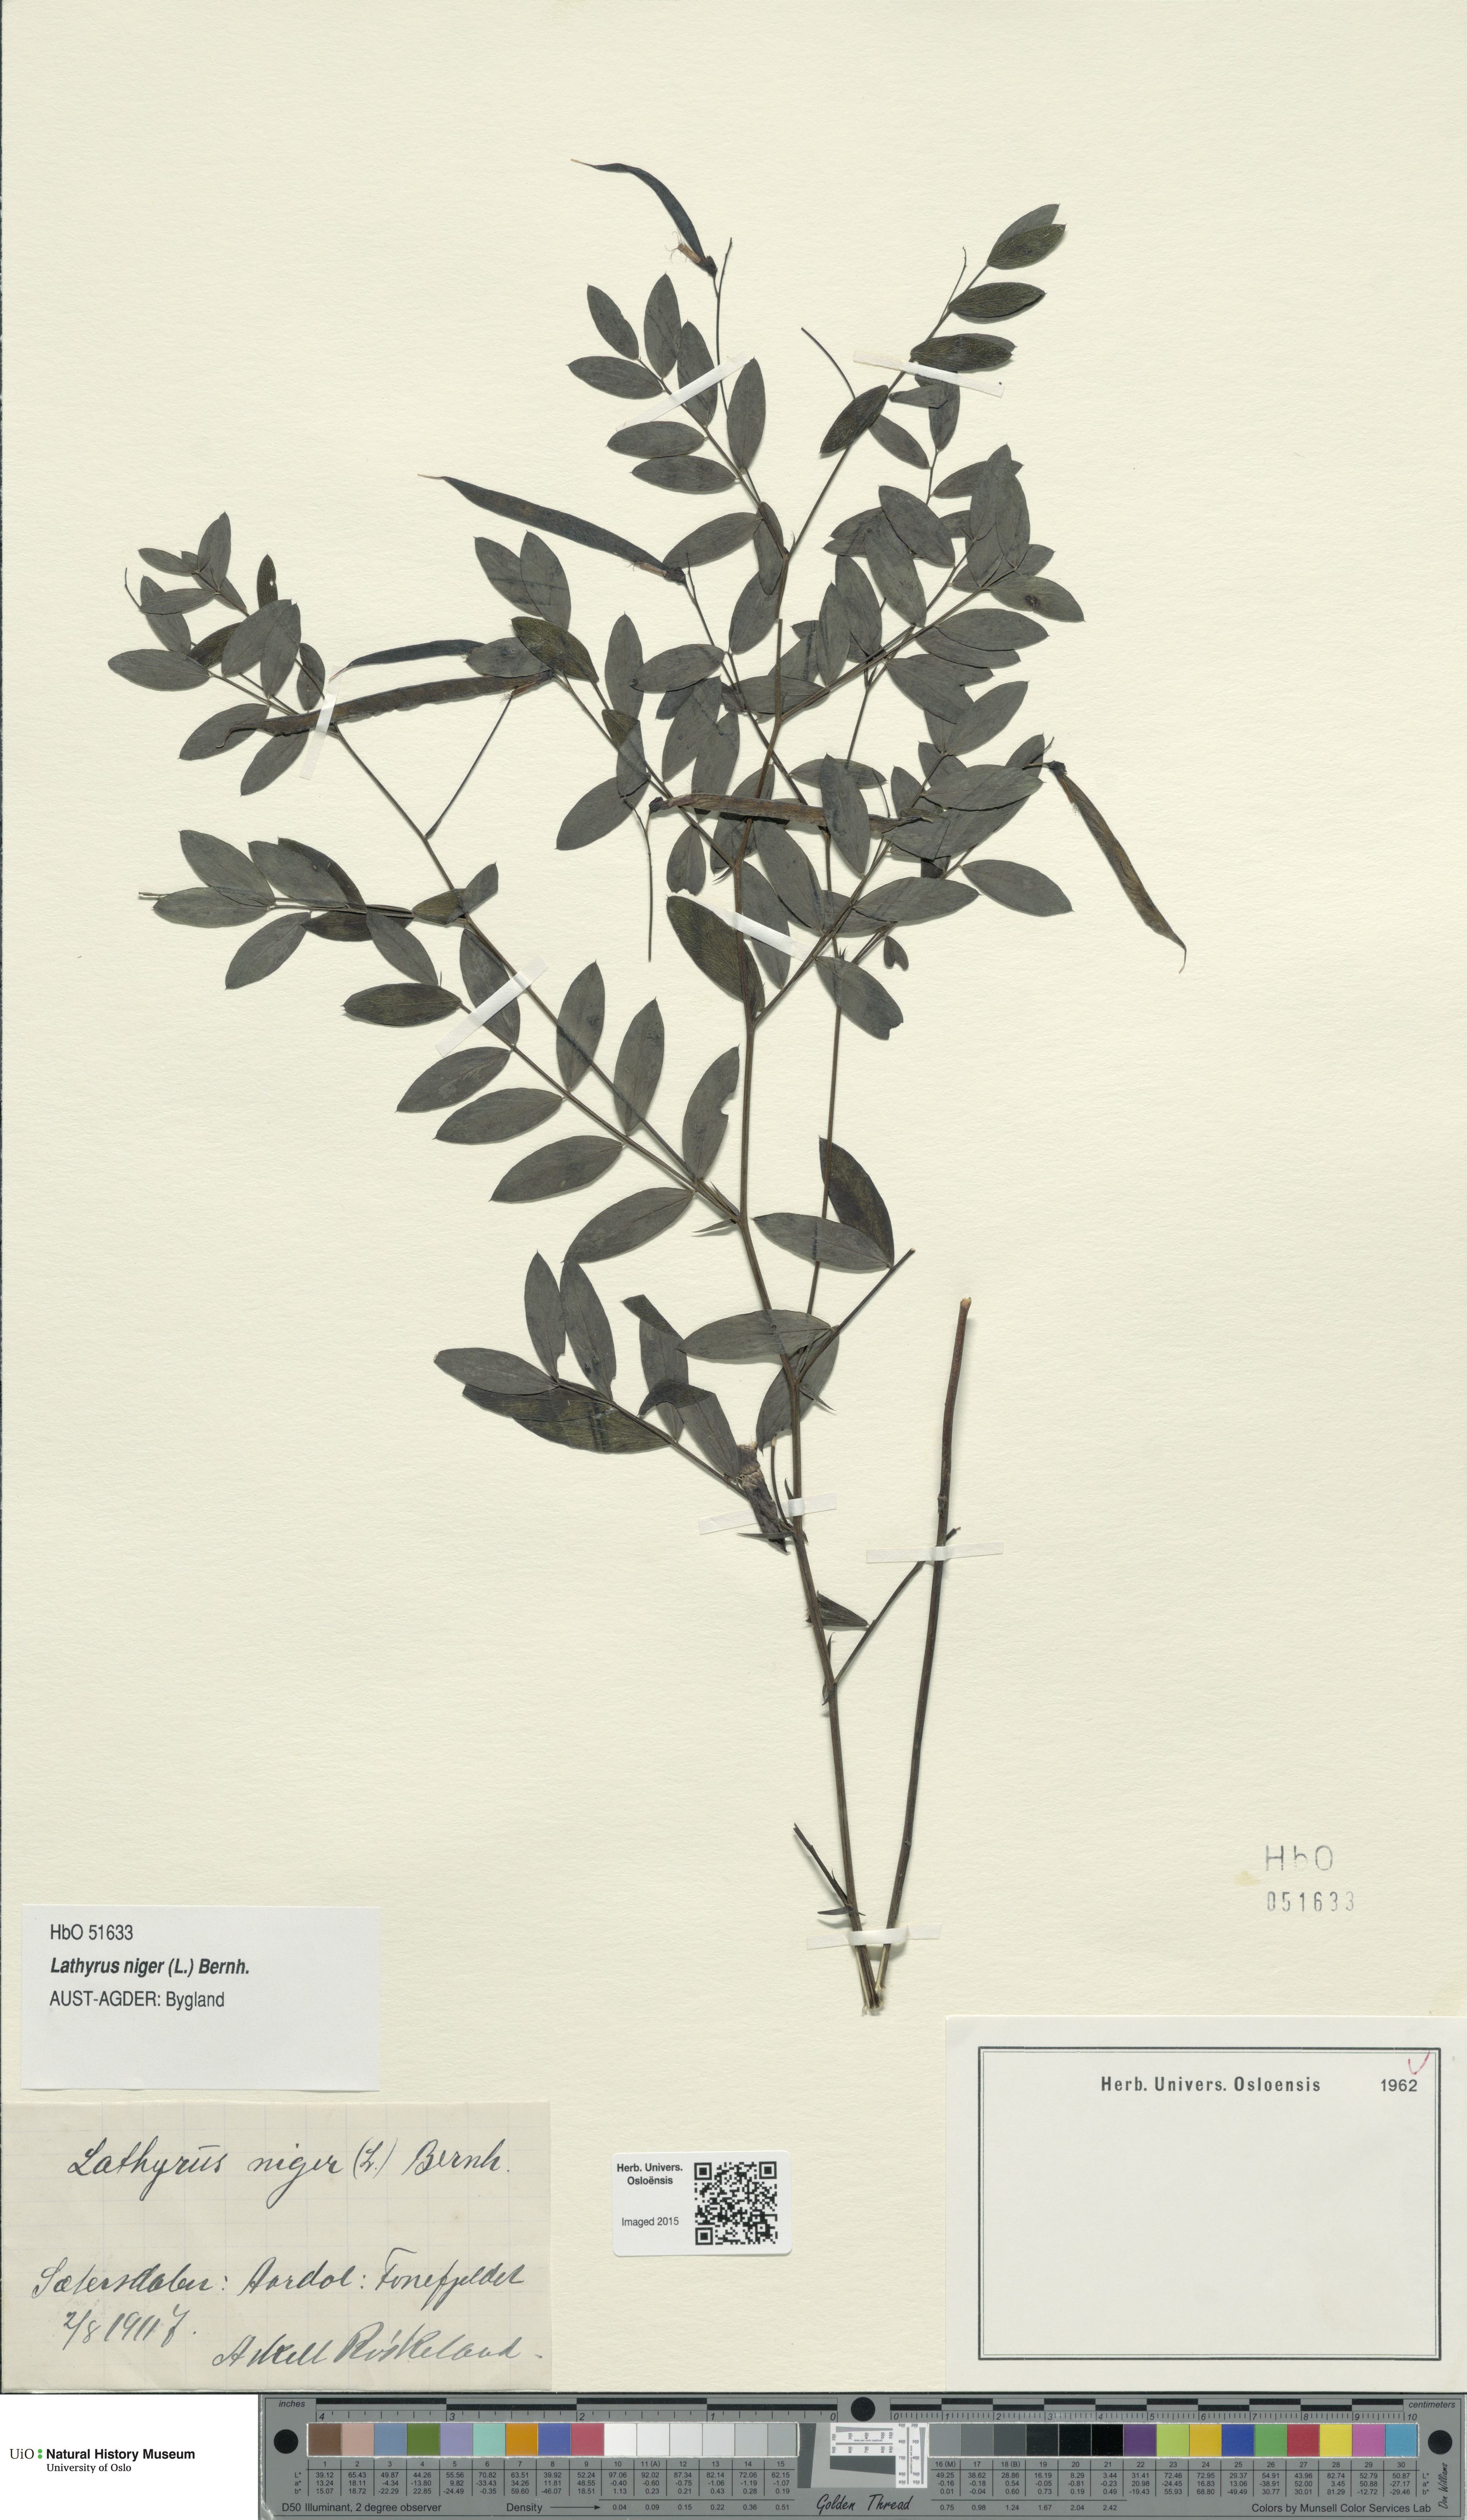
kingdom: Plantae
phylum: Tracheophyta
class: Magnoliopsida
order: Fabales
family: Fabaceae
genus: Lathyrus
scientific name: Lathyrus niger
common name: Black pea
